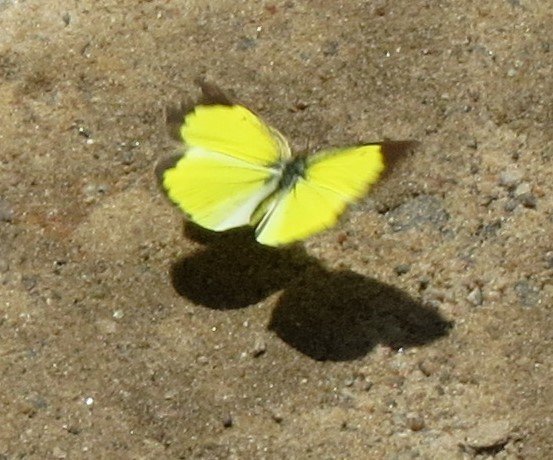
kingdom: Animalia
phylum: Arthropoda
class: Insecta
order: Lepidoptera
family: Pieridae
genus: Pyrisitia
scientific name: Pyrisitia lisa
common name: Little Yellow
